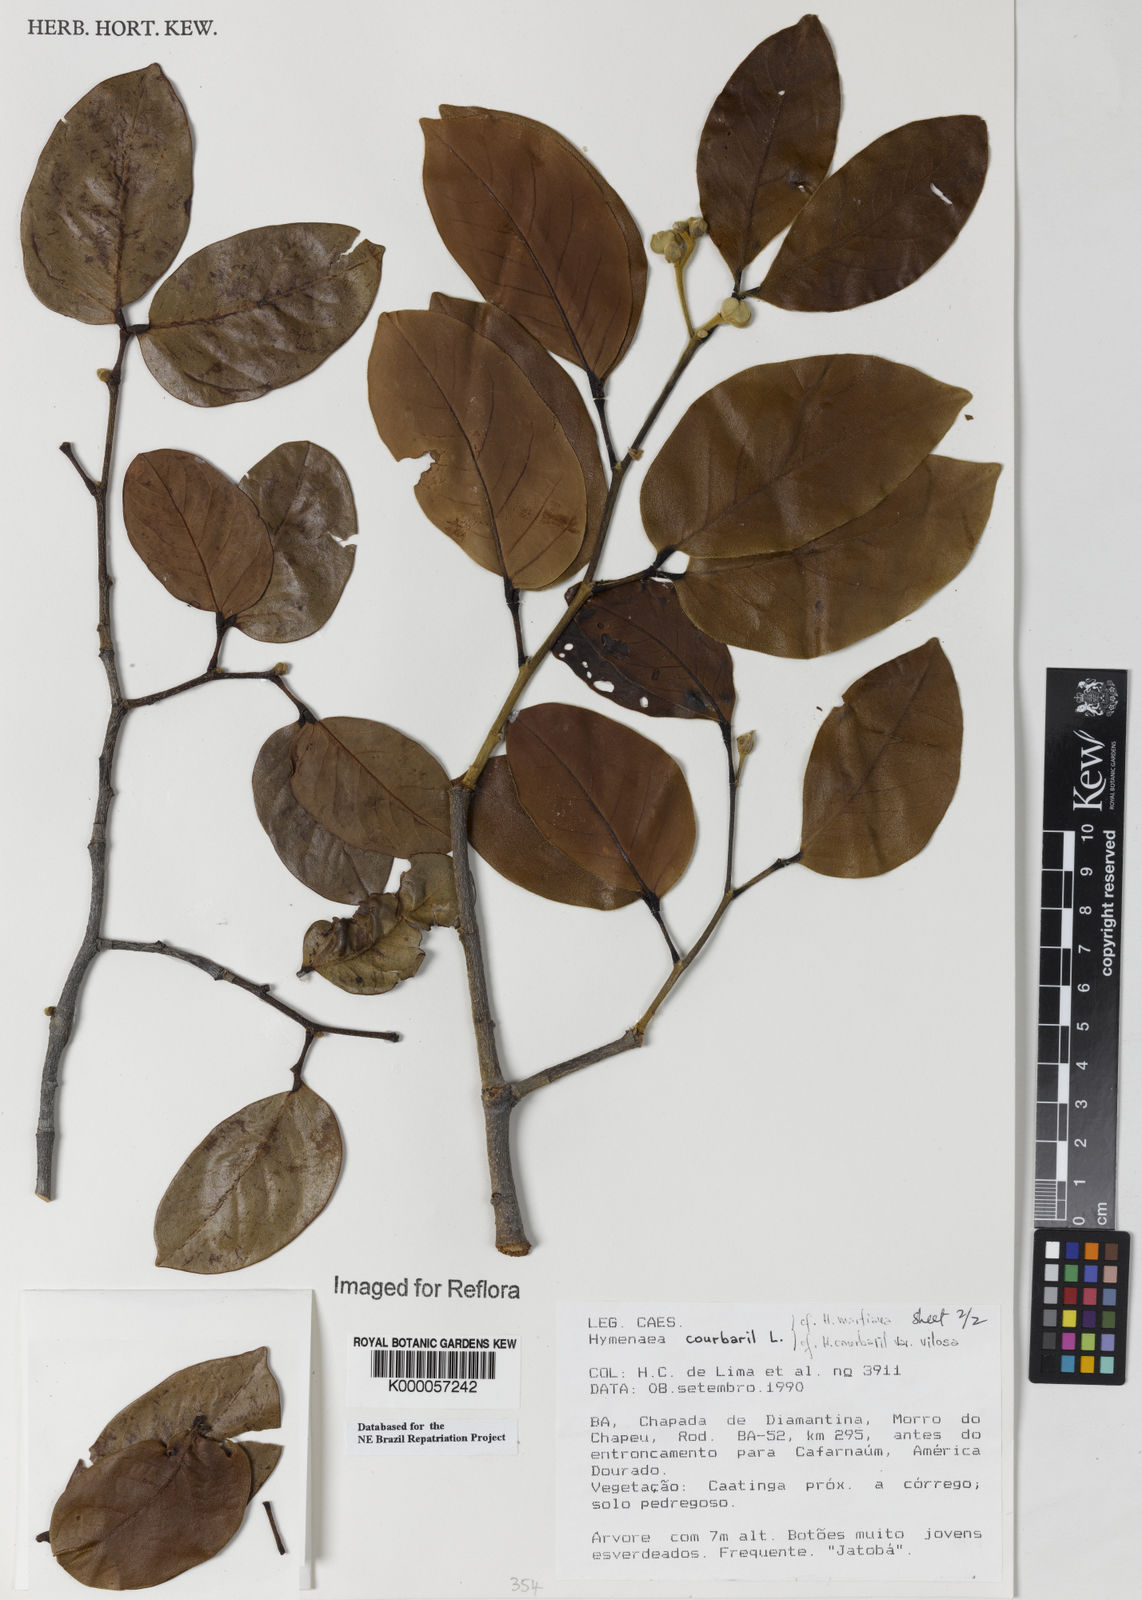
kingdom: Plantae
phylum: Tracheophyta
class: Magnoliopsida
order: Fabales
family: Fabaceae
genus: Hymenaea
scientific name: Hymenaea longifolia
